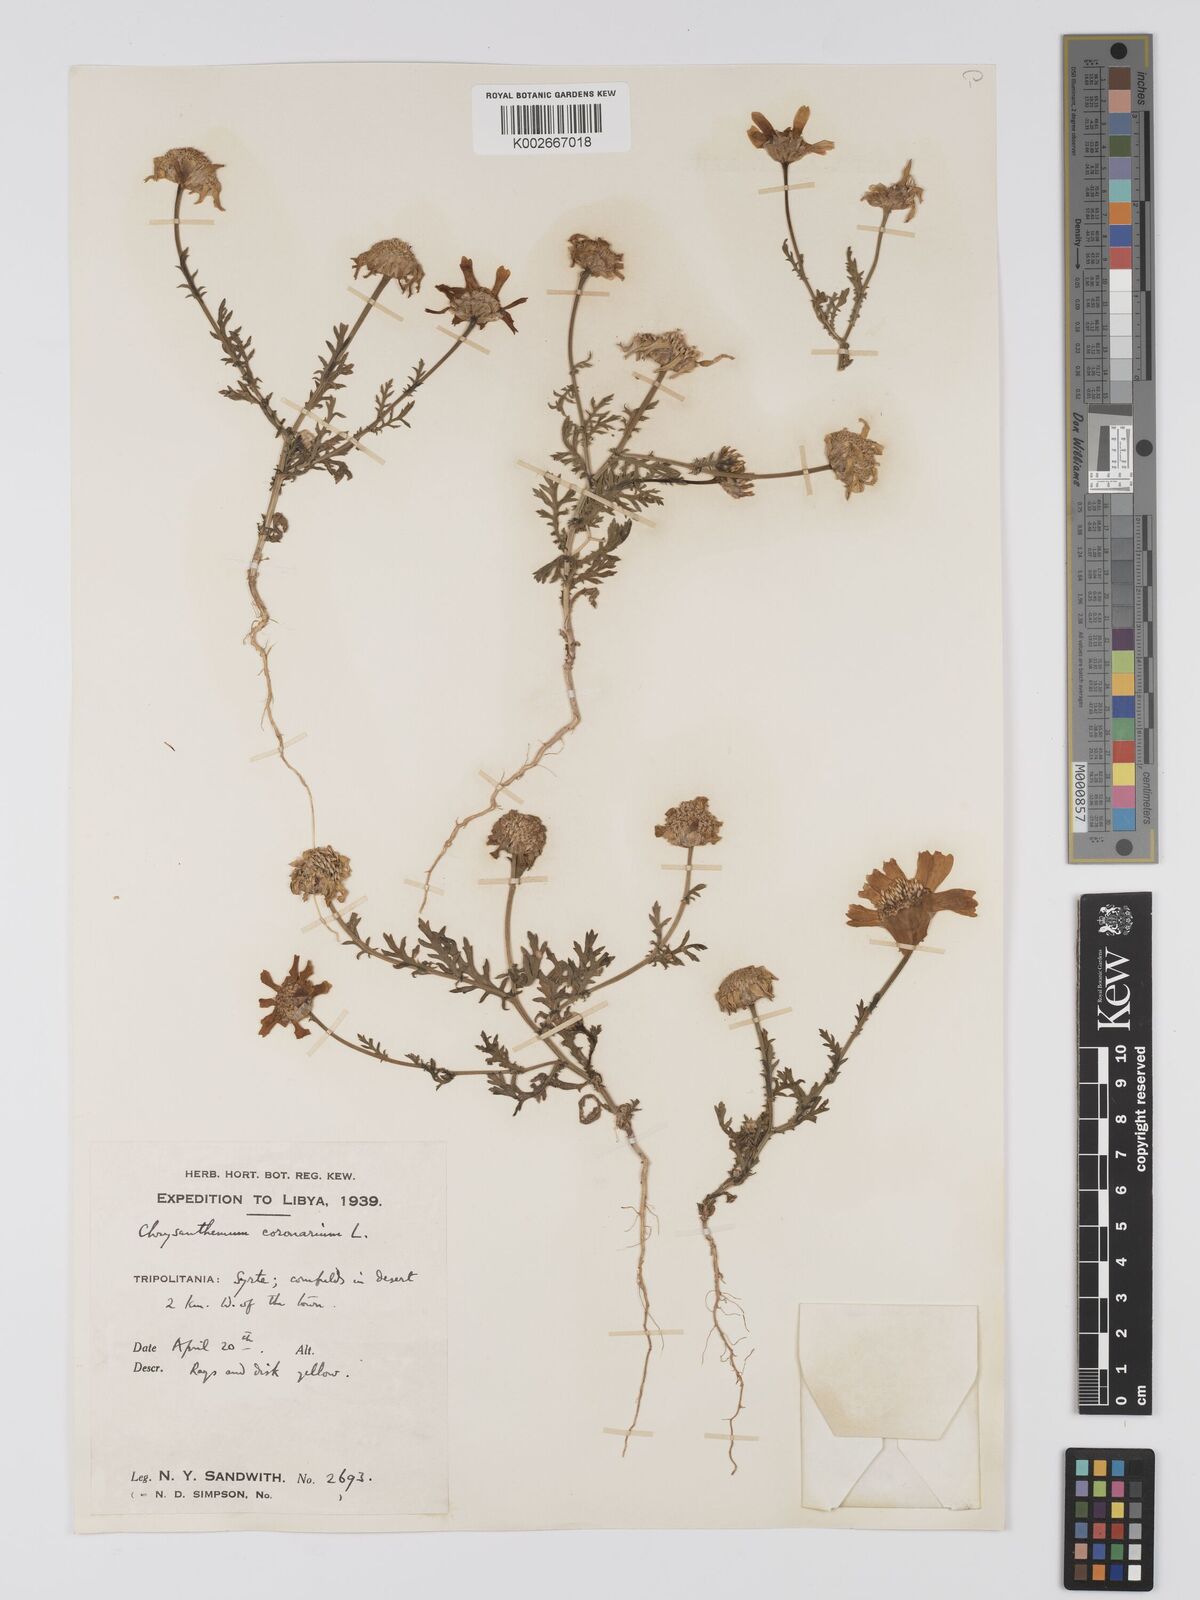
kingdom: Plantae
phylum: Tracheophyta
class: Magnoliopsida
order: Asterales
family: Asteraceae
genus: Glebionis
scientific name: Glebionis coronaria
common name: Crowndaisy
